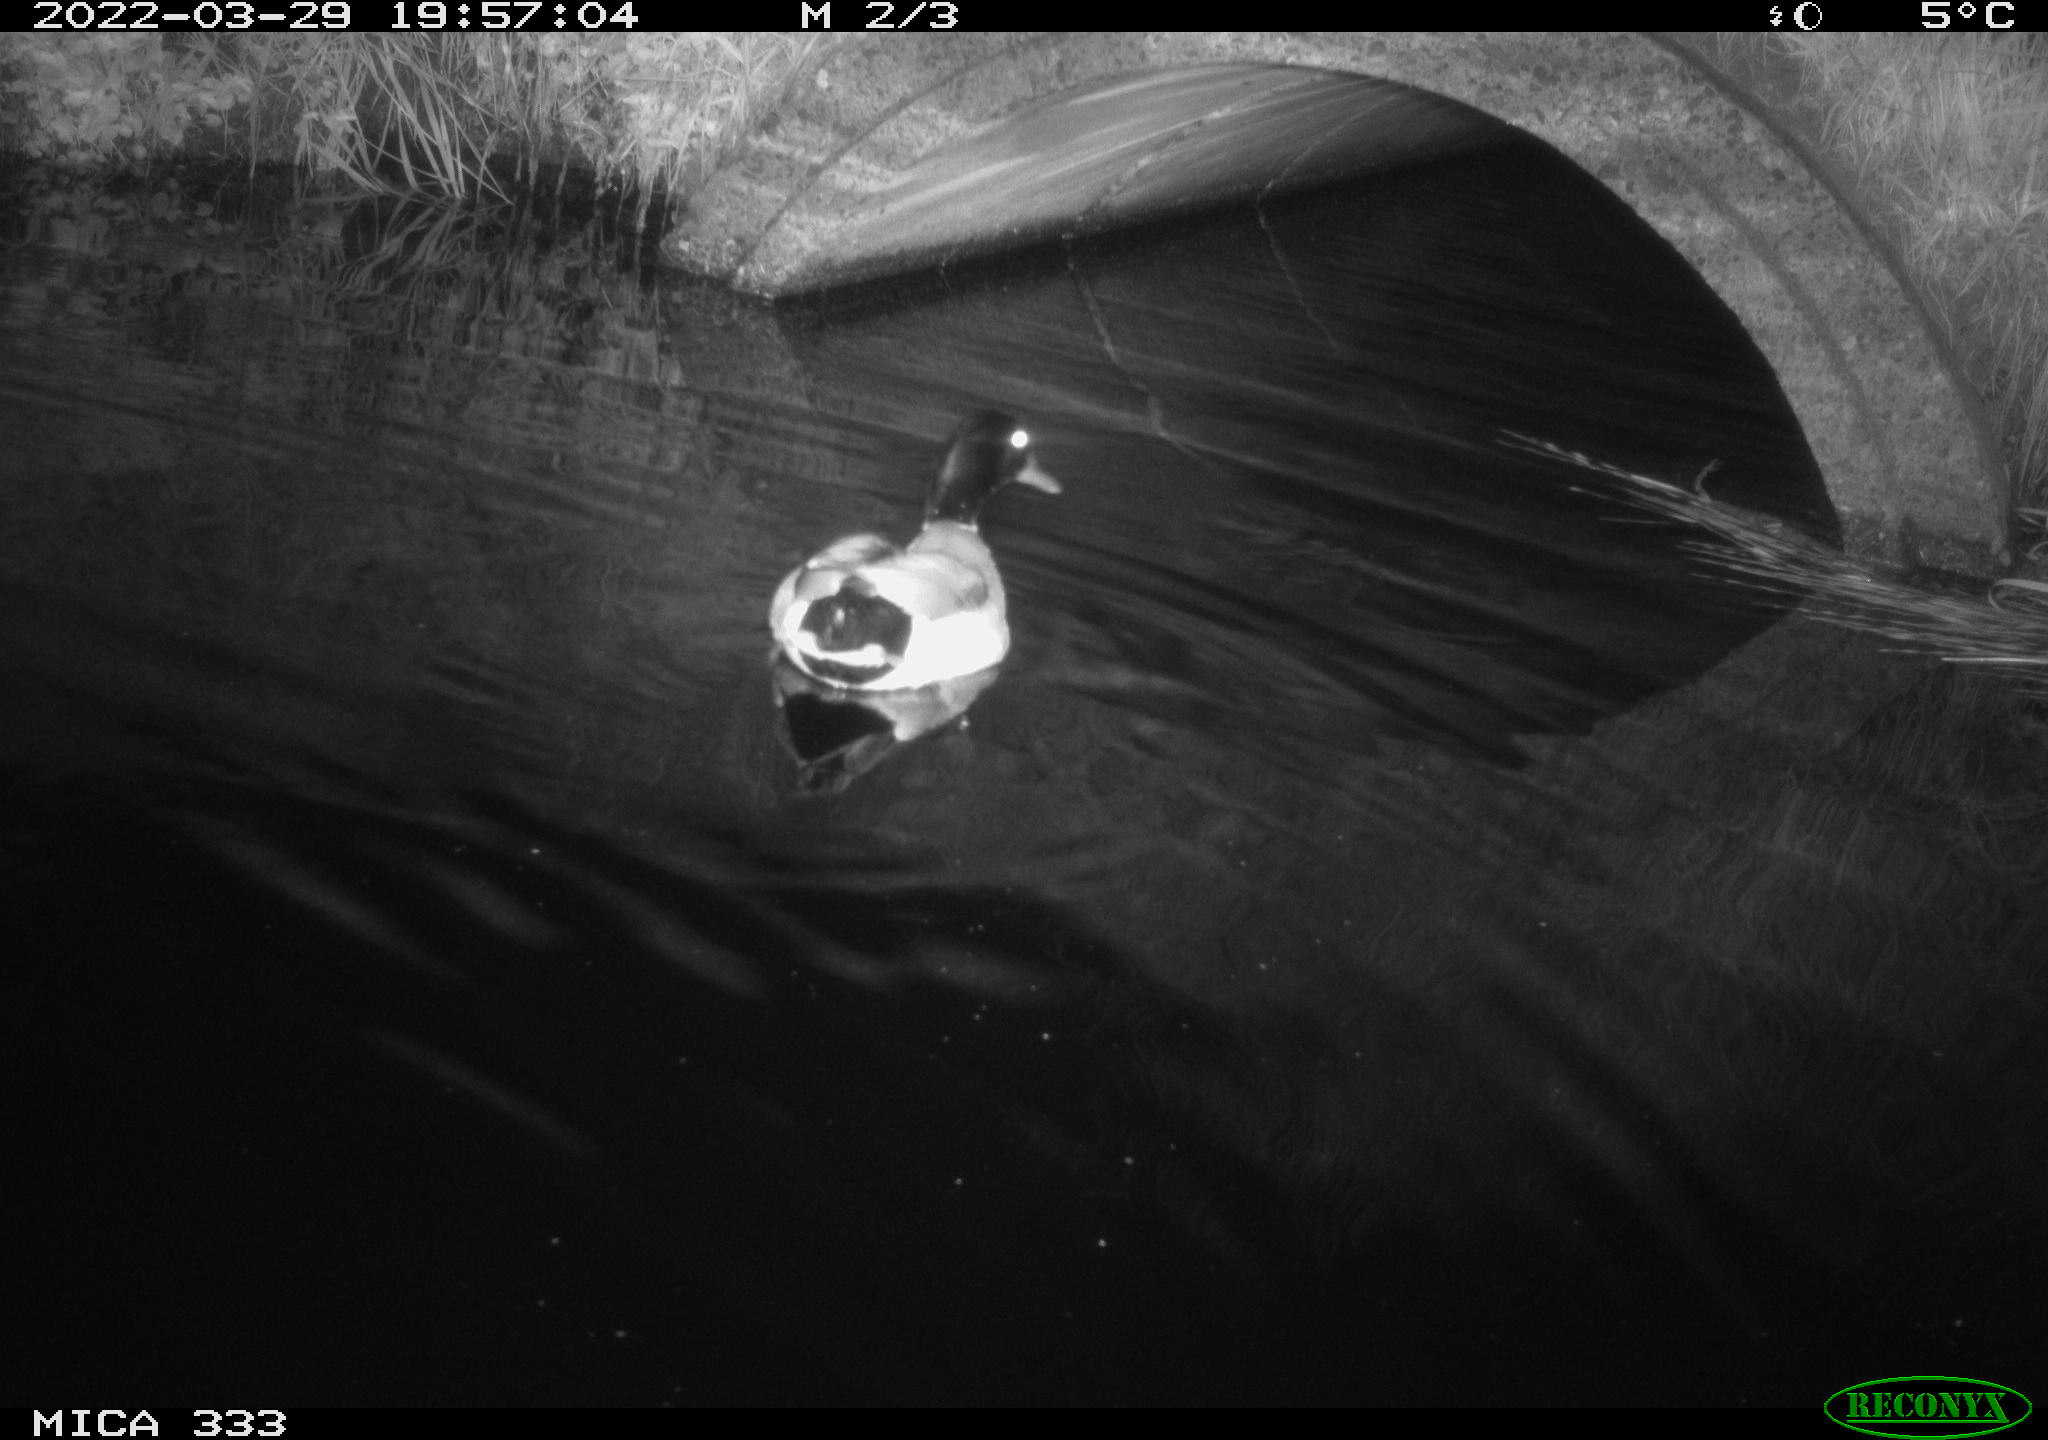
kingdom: Animalia
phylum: Chordata
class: Aves
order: Anseriformes
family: Anatidae
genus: Anas
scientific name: Anas platyrhynchos
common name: Mallard
